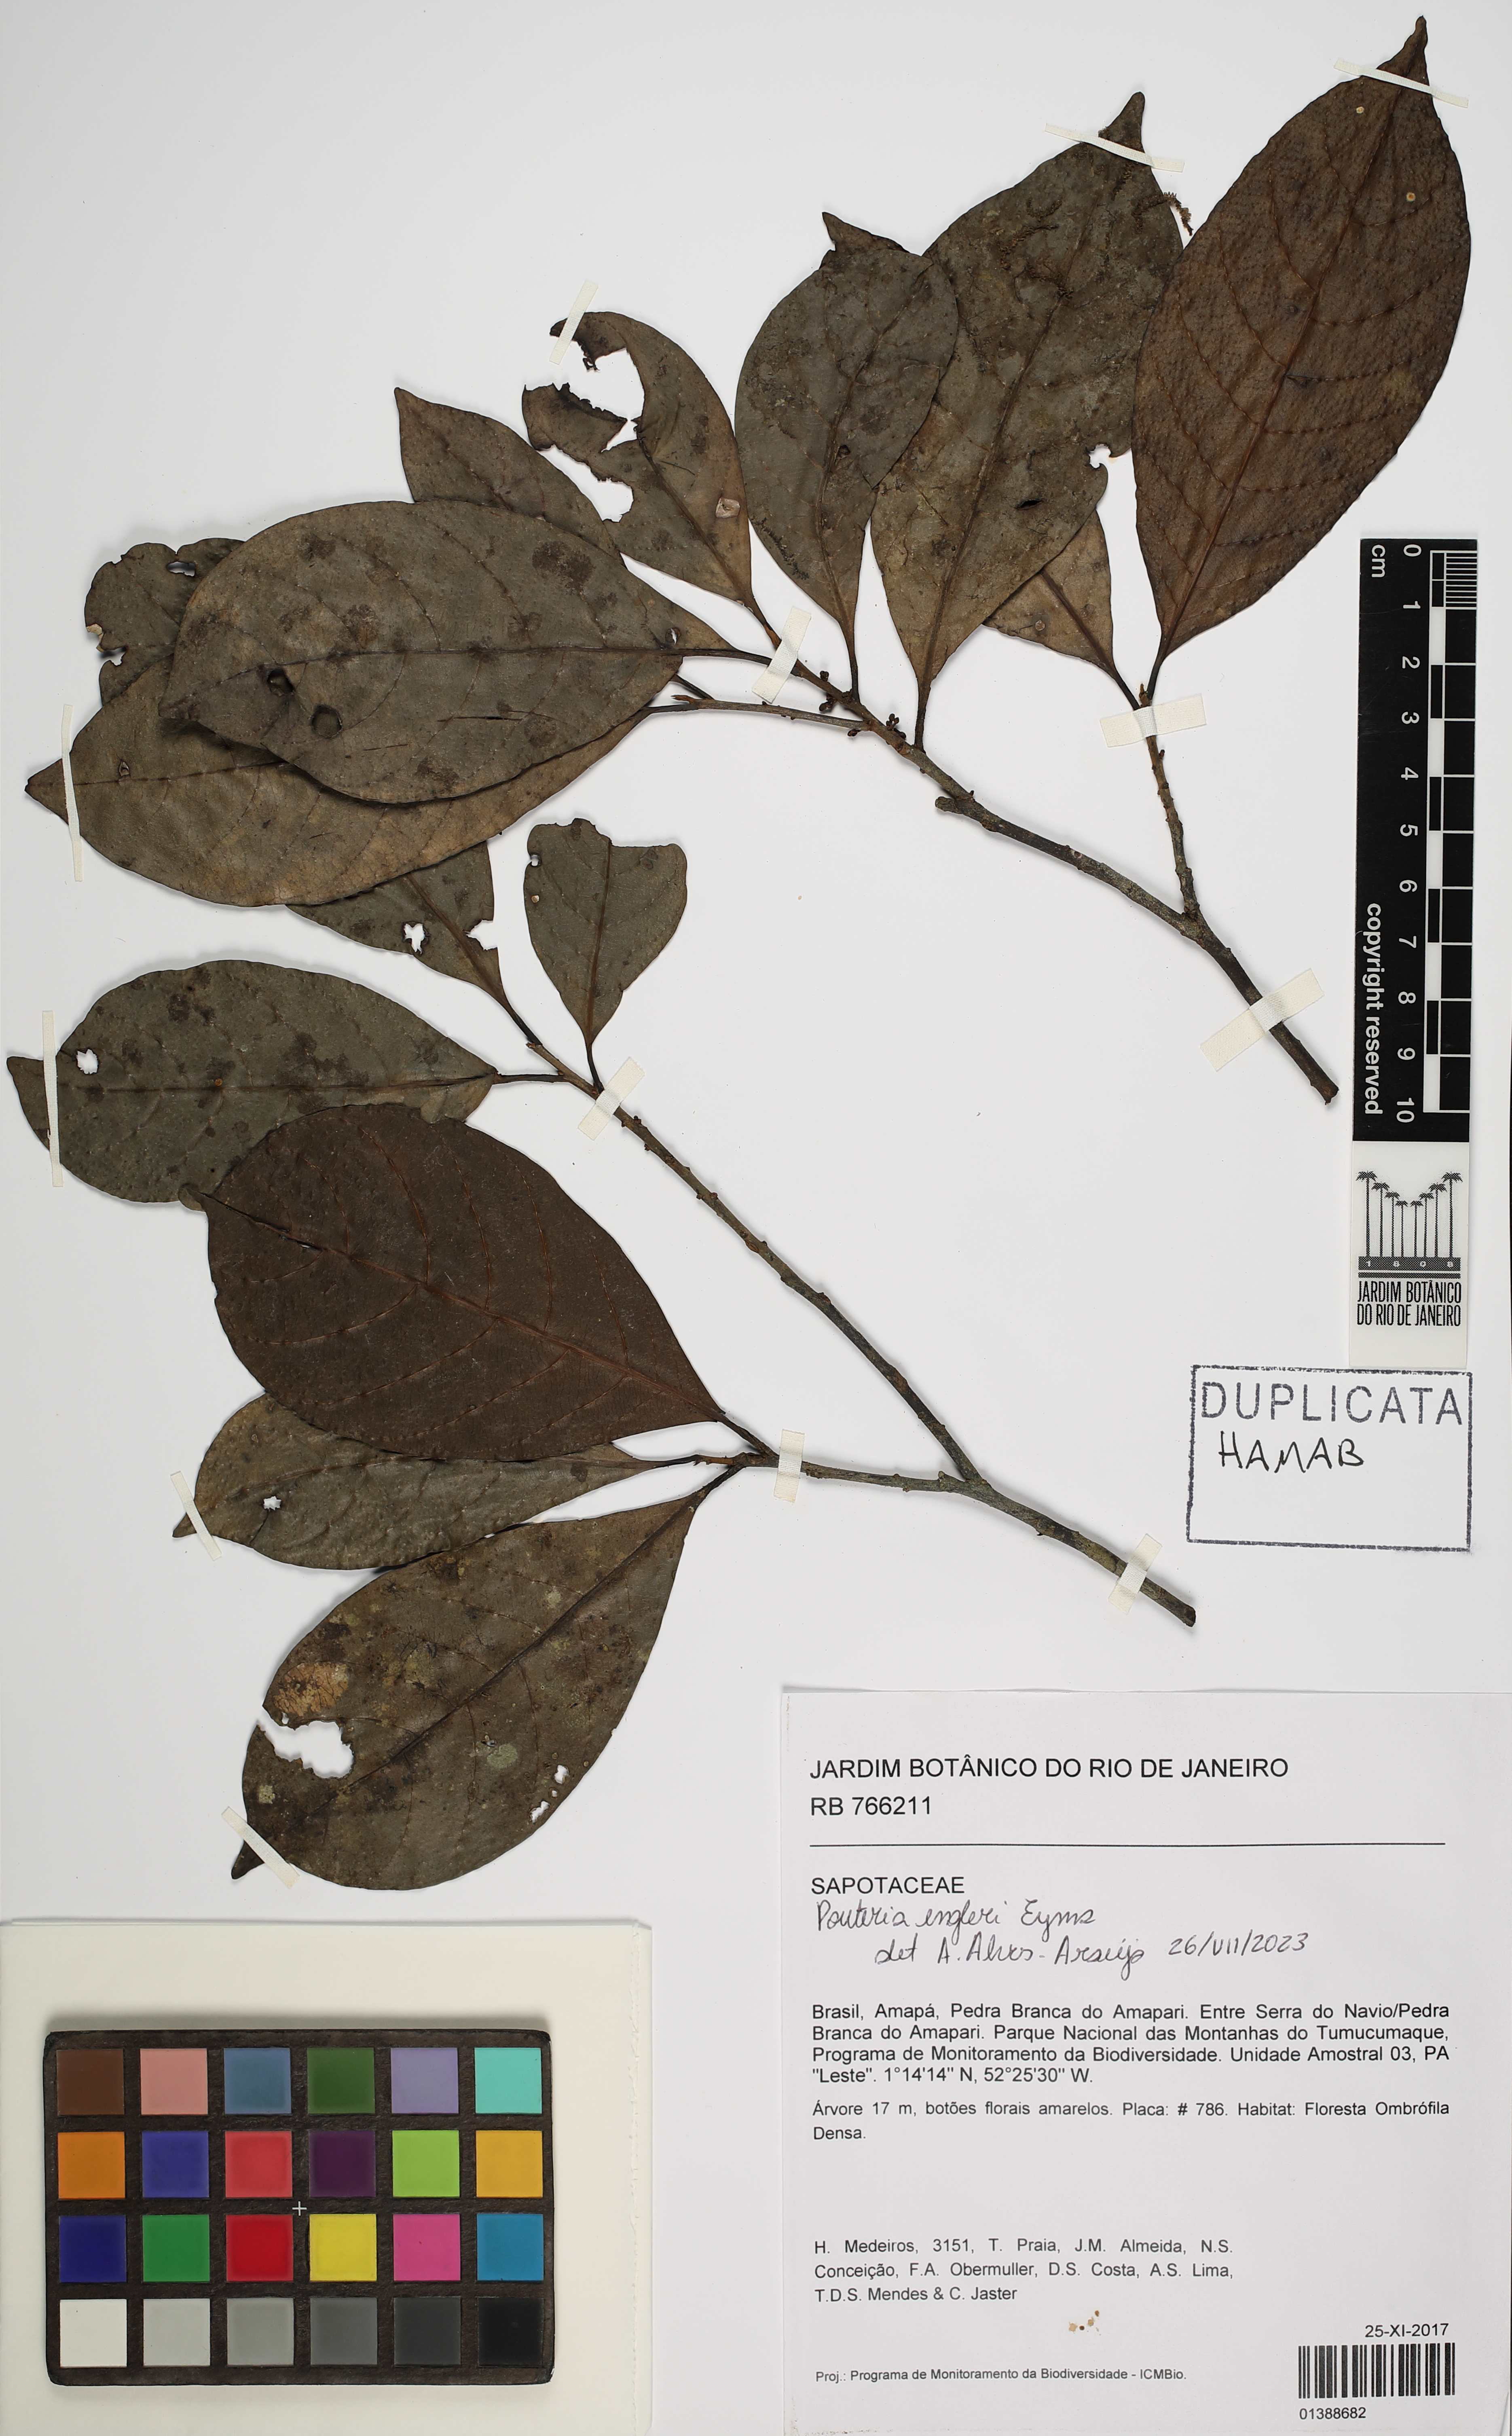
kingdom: Plantae
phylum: Tracheophyta
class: Magnoliopsida
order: Ericales
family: Sapotaceae
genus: Pouteria
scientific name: Pouteria engleri
